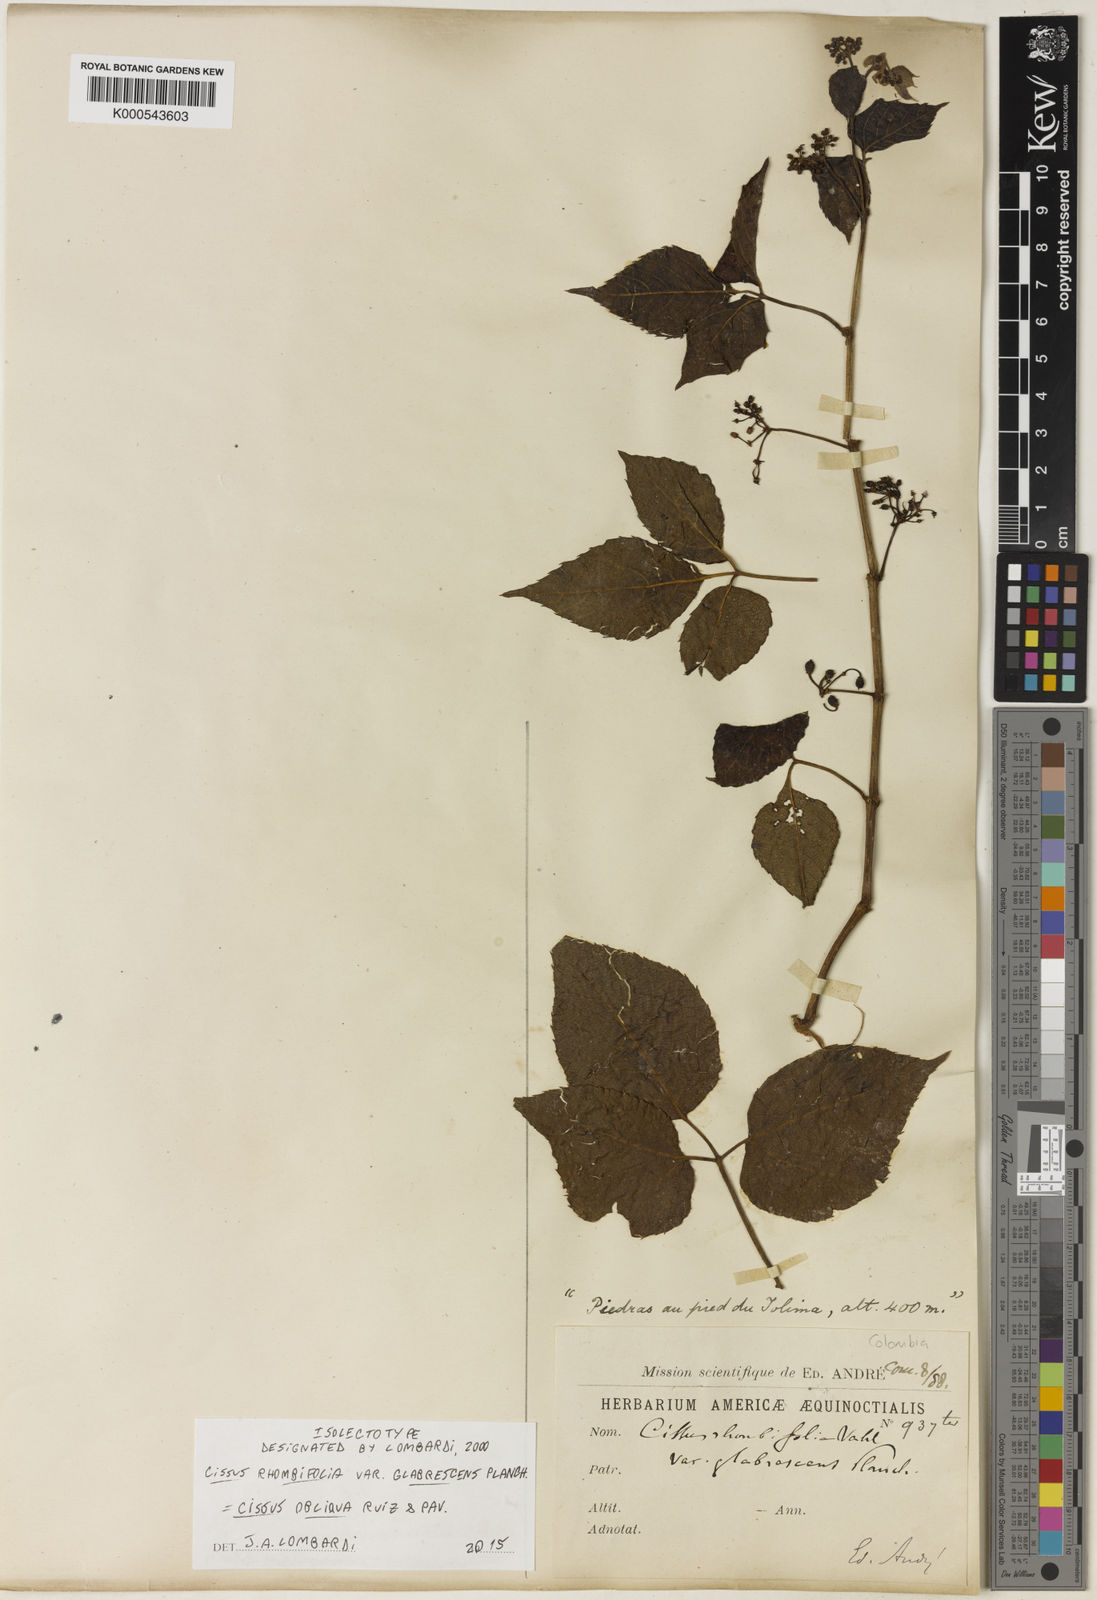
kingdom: Plantae
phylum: Tracheophyta
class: Magnoliopsida
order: Vitales
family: Vitaceae
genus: Cissus
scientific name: Cissus obliqua
